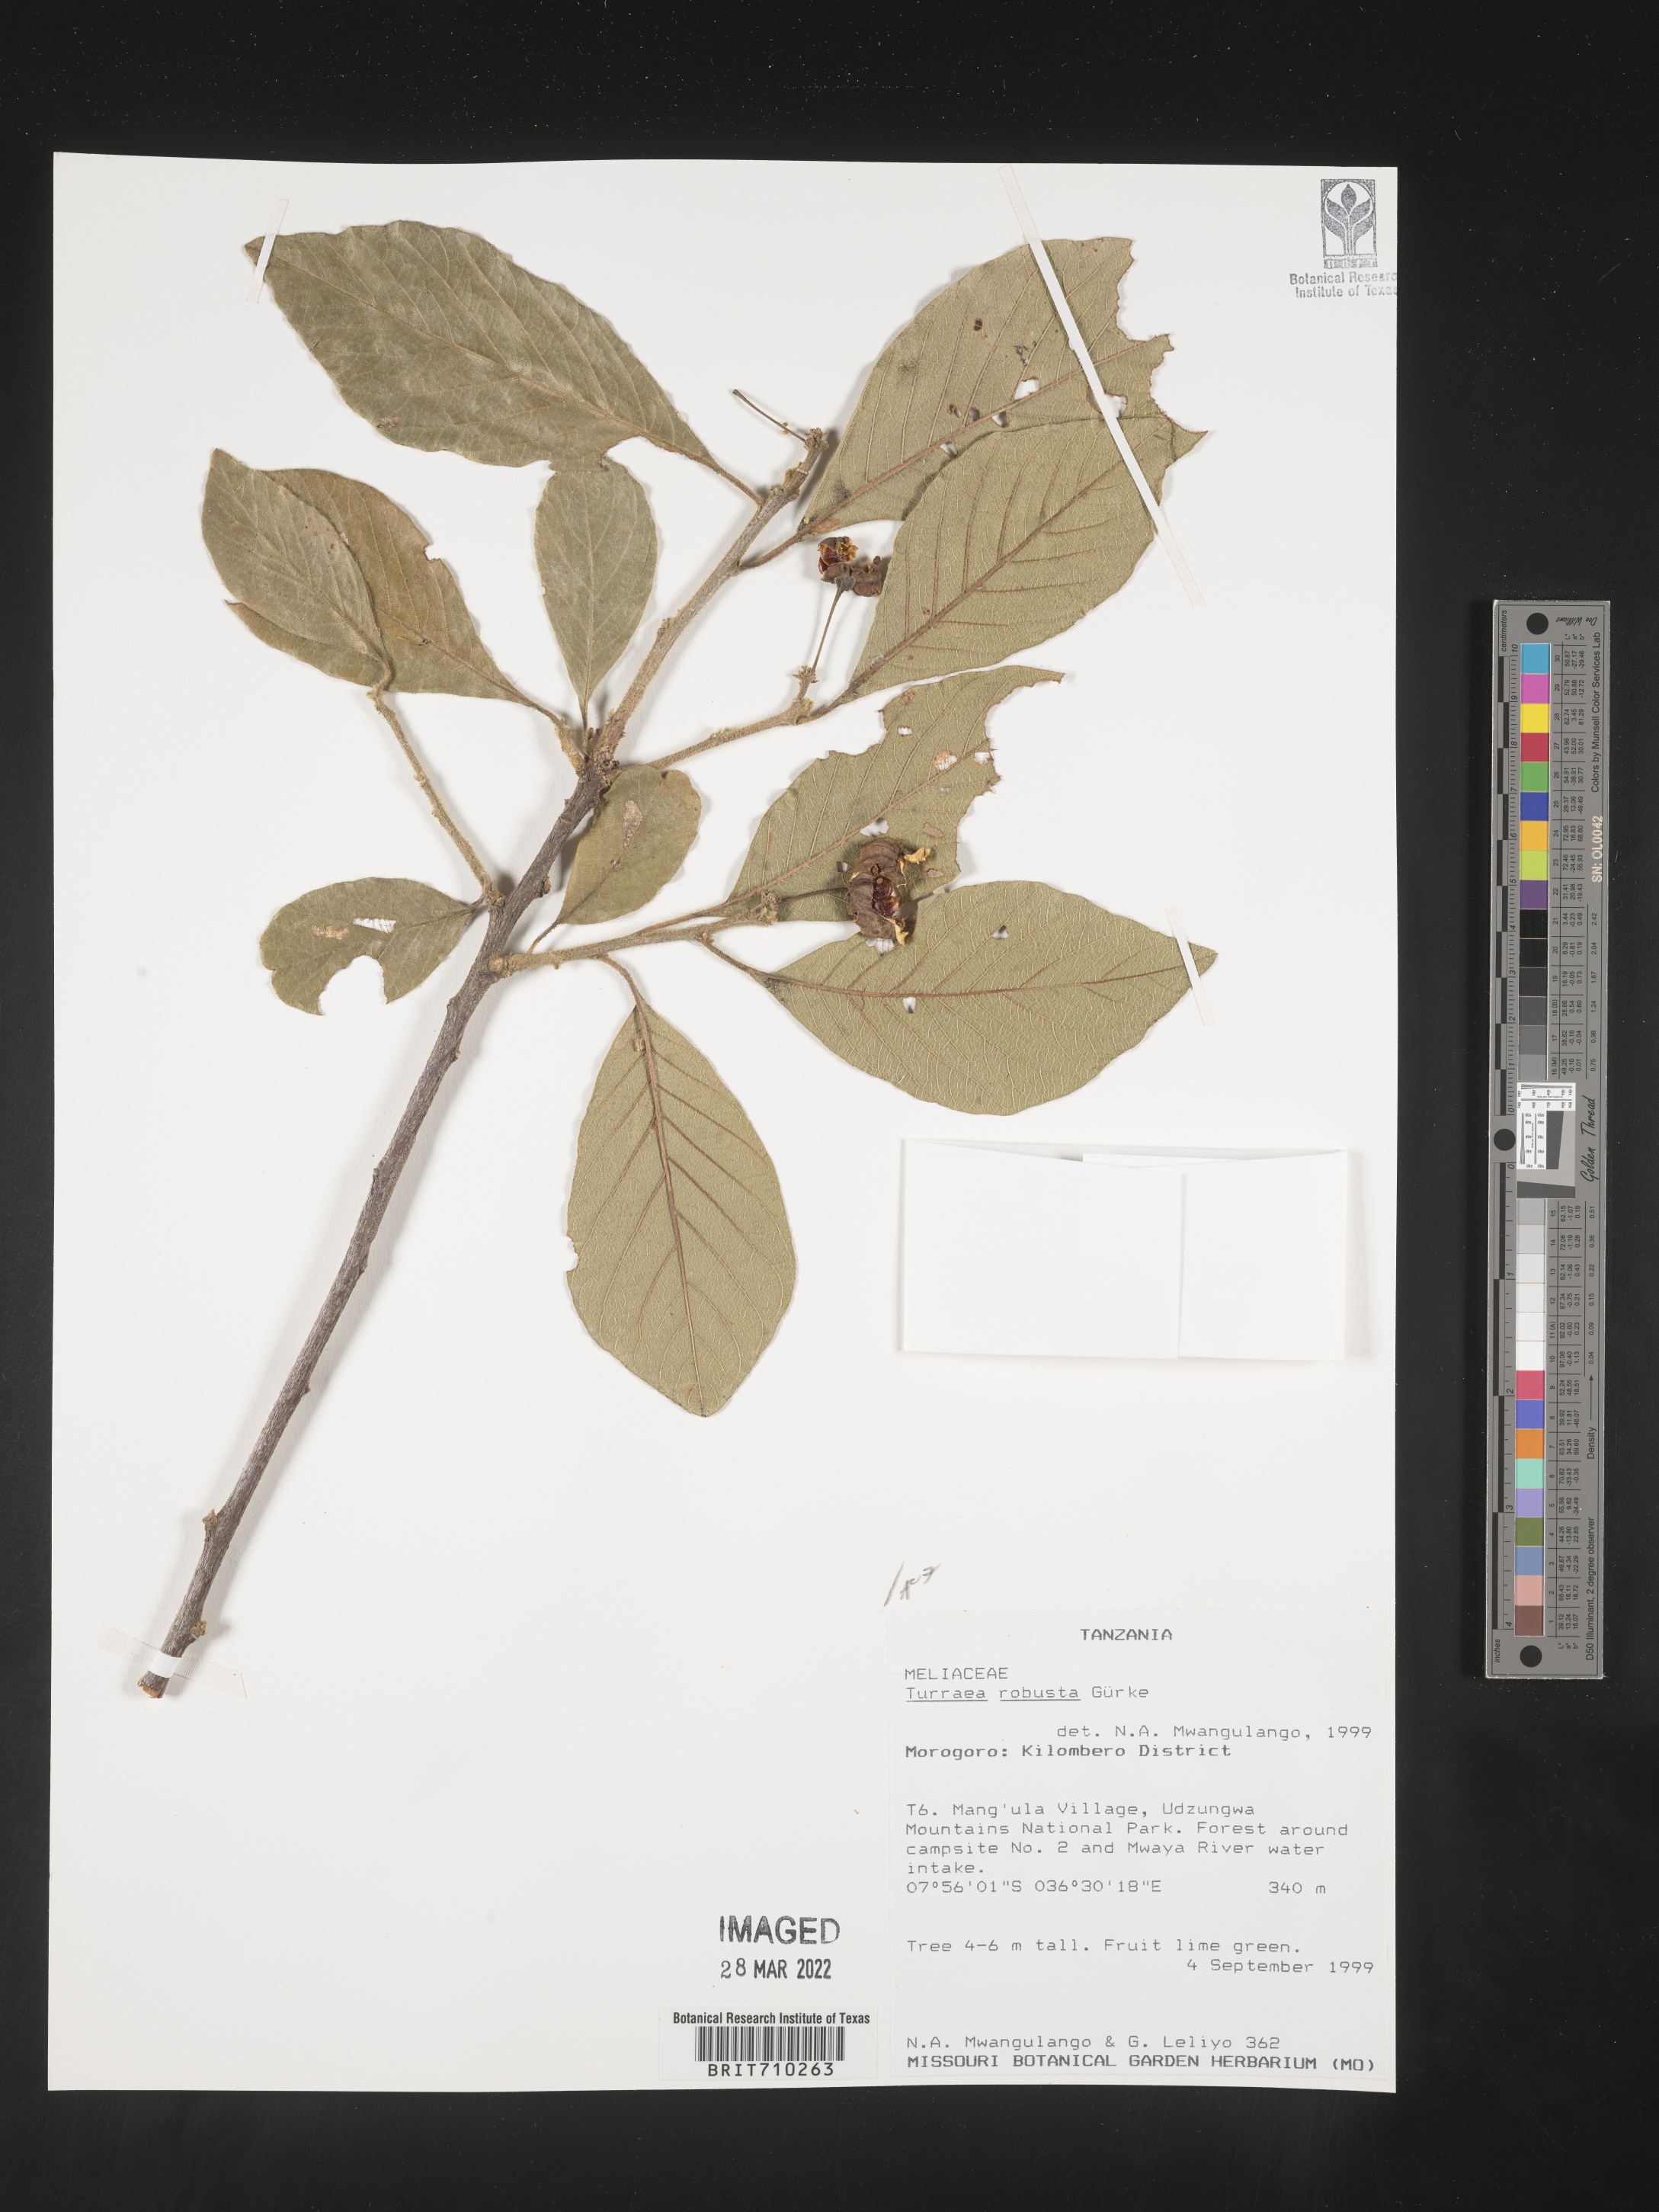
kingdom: Plantae
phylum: Tracheophyta
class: Magnoliopsida
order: Sapindales
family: Meliaceae
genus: Turraea
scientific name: Turraea
